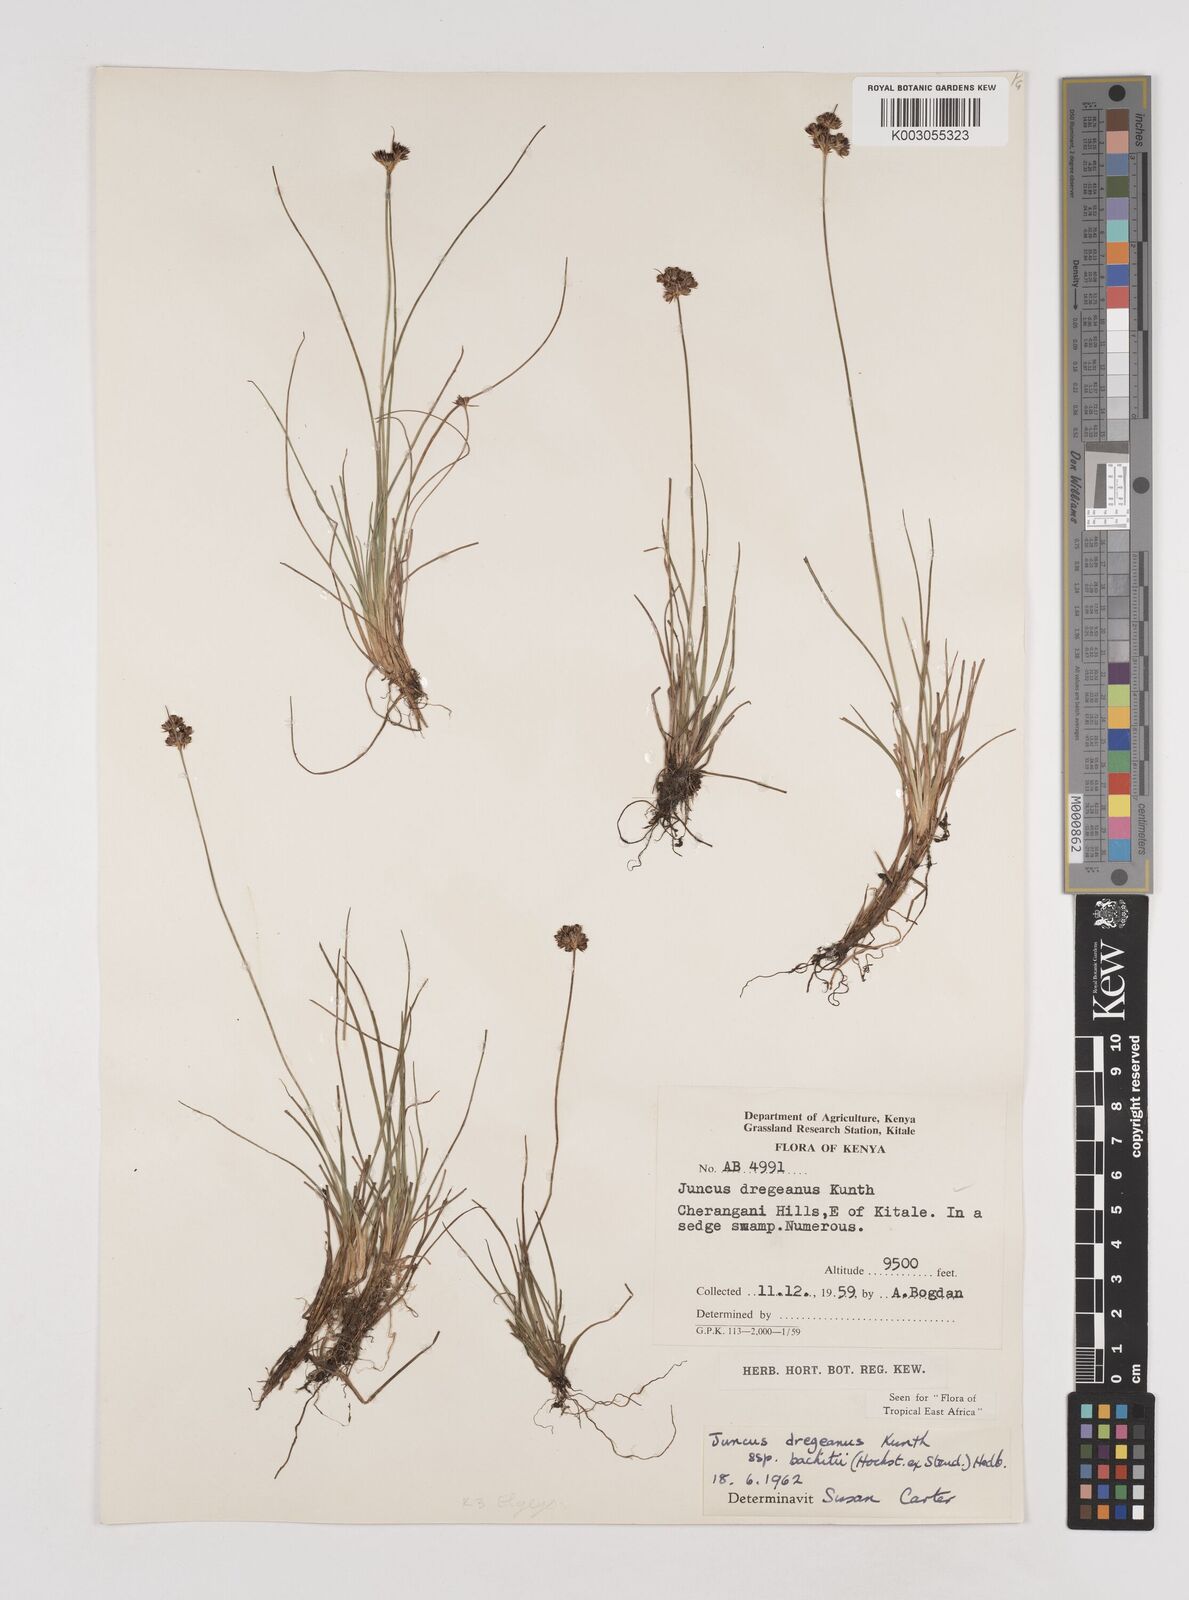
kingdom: Plantae
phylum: Tracheophyta
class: Liliopsida
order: Poales
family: Juncaceae
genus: Juncus
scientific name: Juncus dregeanus
